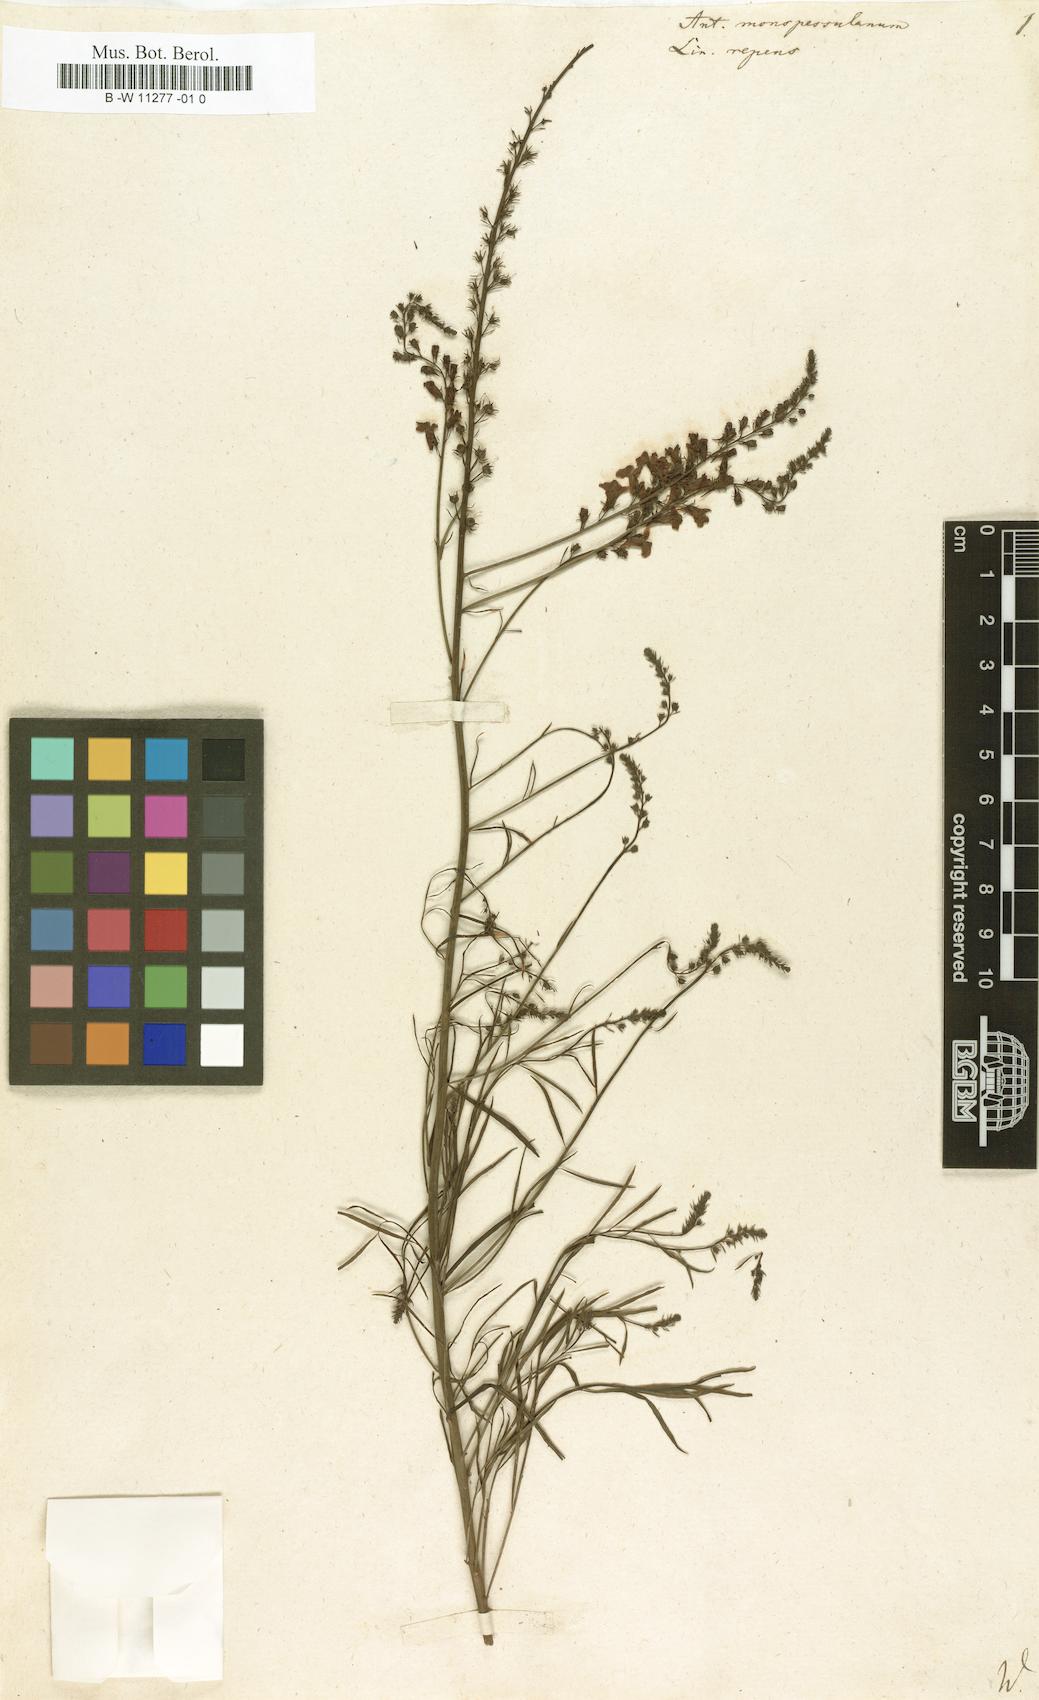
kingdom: Plantae
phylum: Tracheophyta
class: Magnoliopsida
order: Lamiales
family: Plantaginaceae
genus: Linaria
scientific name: Linaria repens
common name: Pale toadflax
